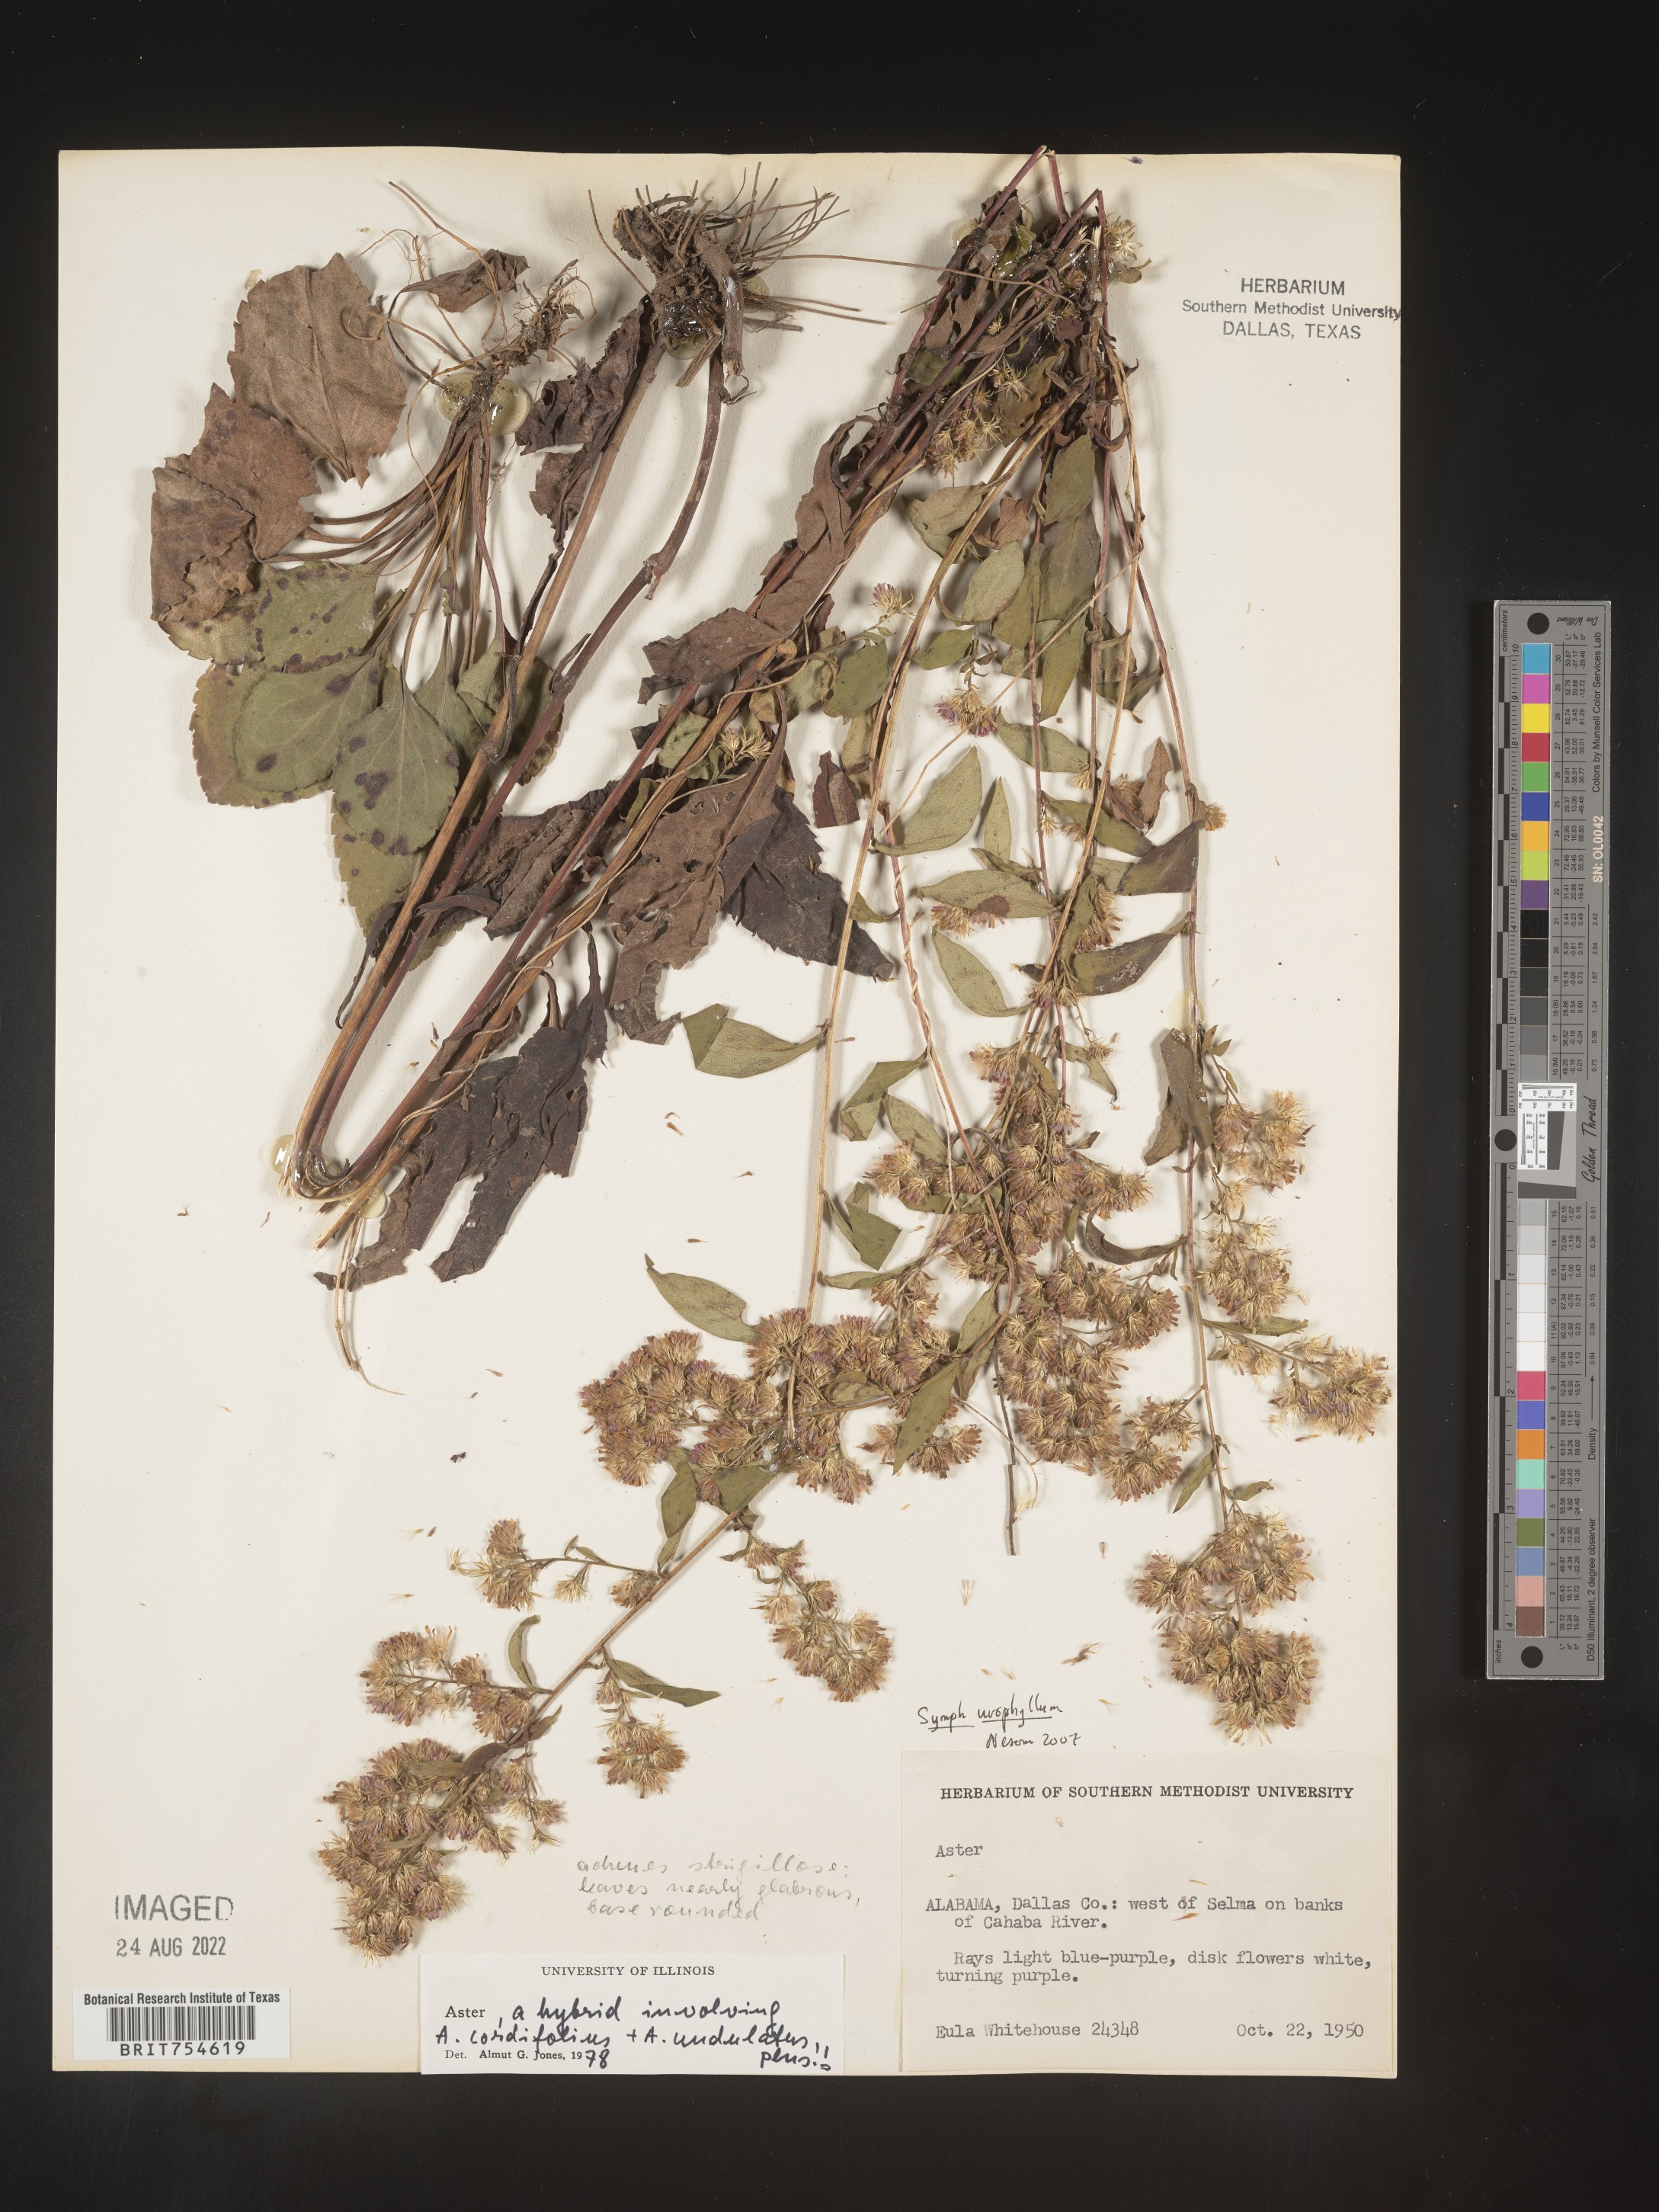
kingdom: Plantae
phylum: Tracheophyta
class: Magnoliopsida
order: Asterales
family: Asteraceae
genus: Symphyotrichum
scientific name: Symphyotrichum urophyllum
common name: Arrow-leaved aster
